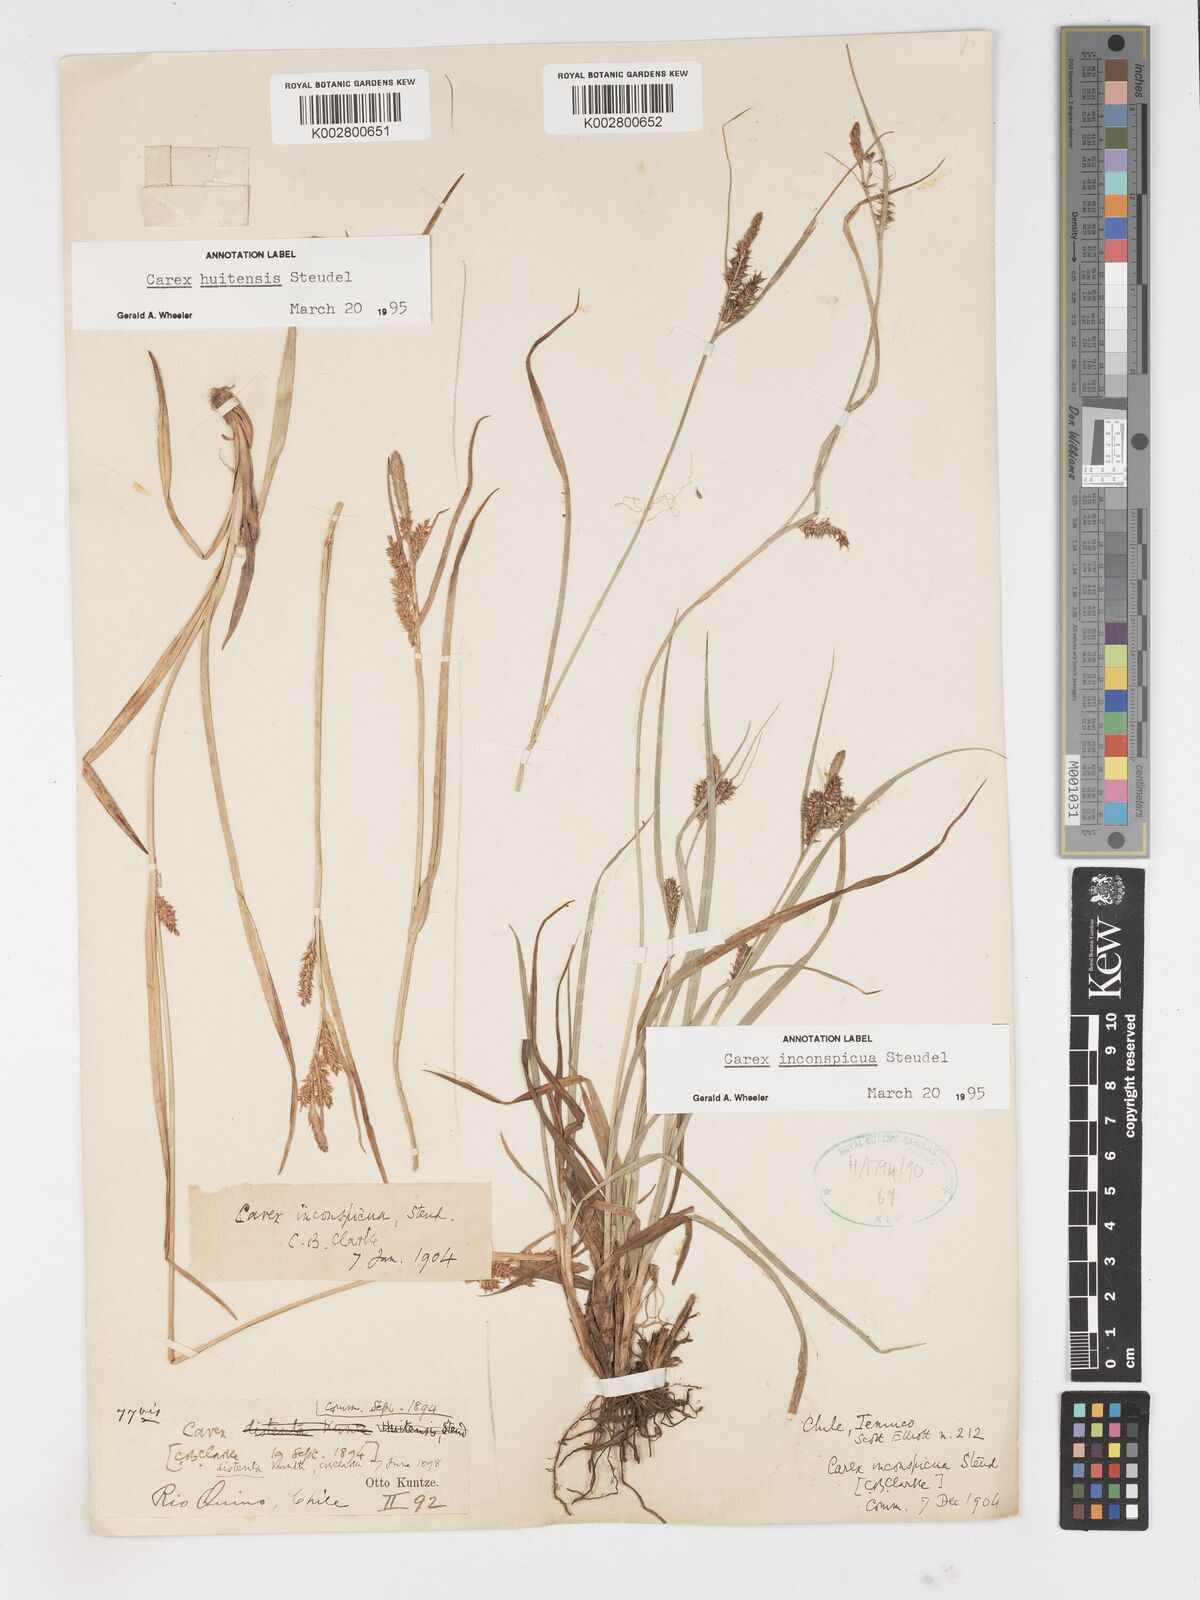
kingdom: Plantae
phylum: Tracheophyta
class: Liliopsida
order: Poales
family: Cyperaceae
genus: Carex
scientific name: Carex fuscula
